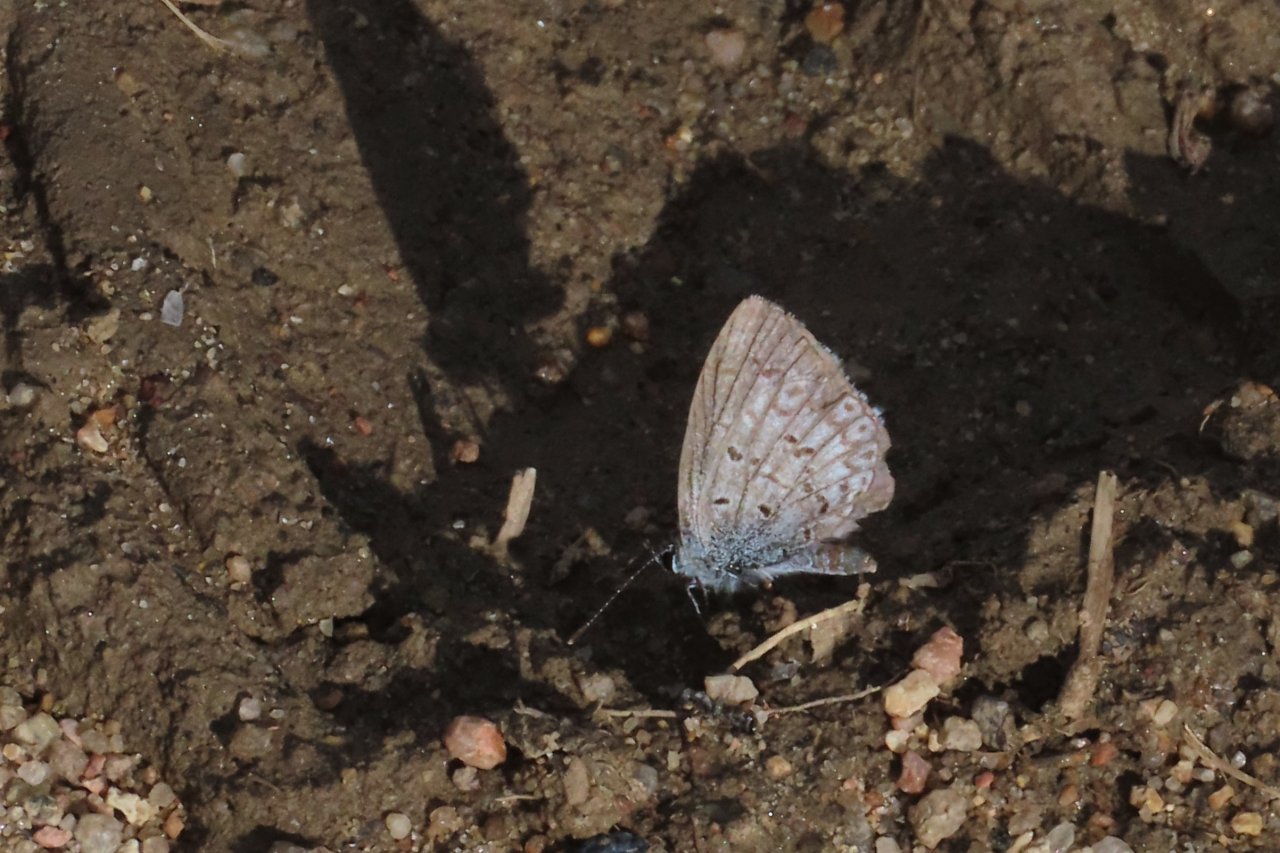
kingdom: Animalia
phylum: Arthropoda
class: Insecta
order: Lepidoptera
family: Lycaenidae
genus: Celastrina
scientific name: Celastrina ladon
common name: Echo Azure
